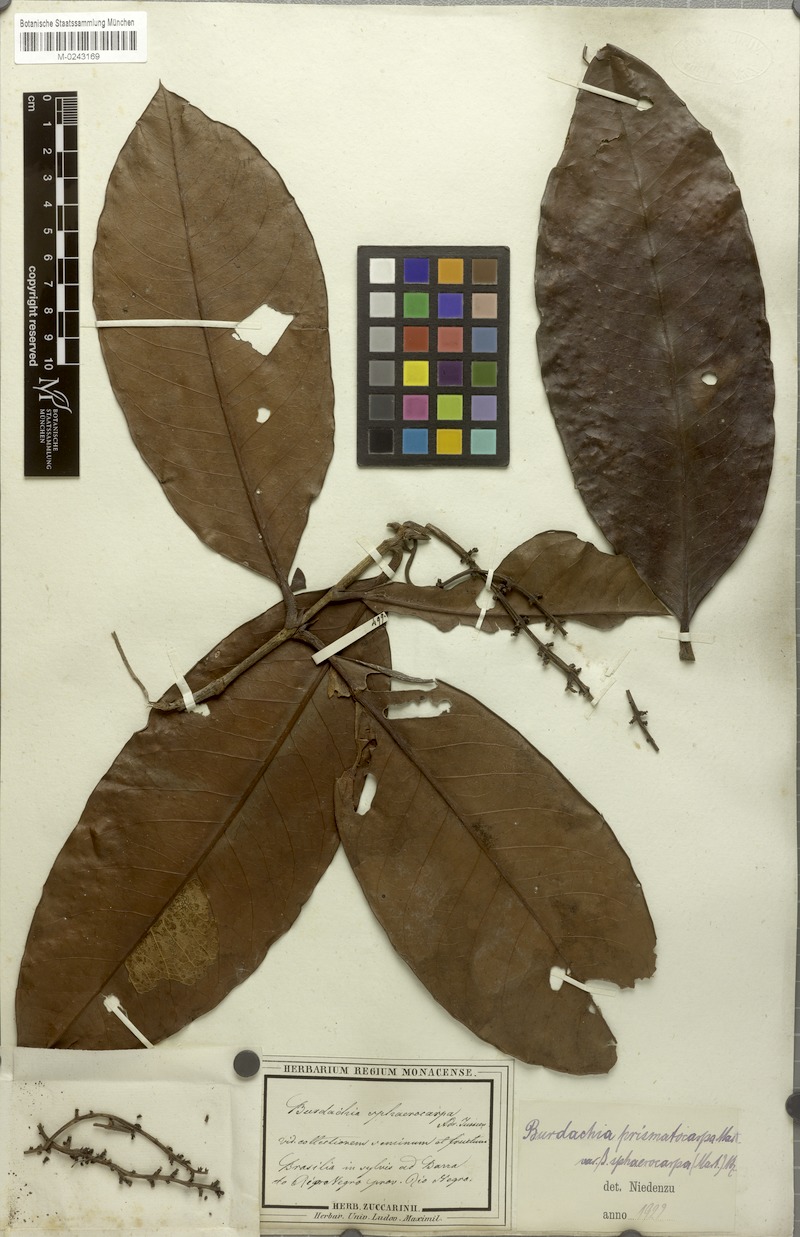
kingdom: Plantae
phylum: Tracheophyta
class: Magnoliopsida
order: Malpighiales
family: Malpighiaceae
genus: Burdachia
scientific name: Burdachia sphaerocarpa
